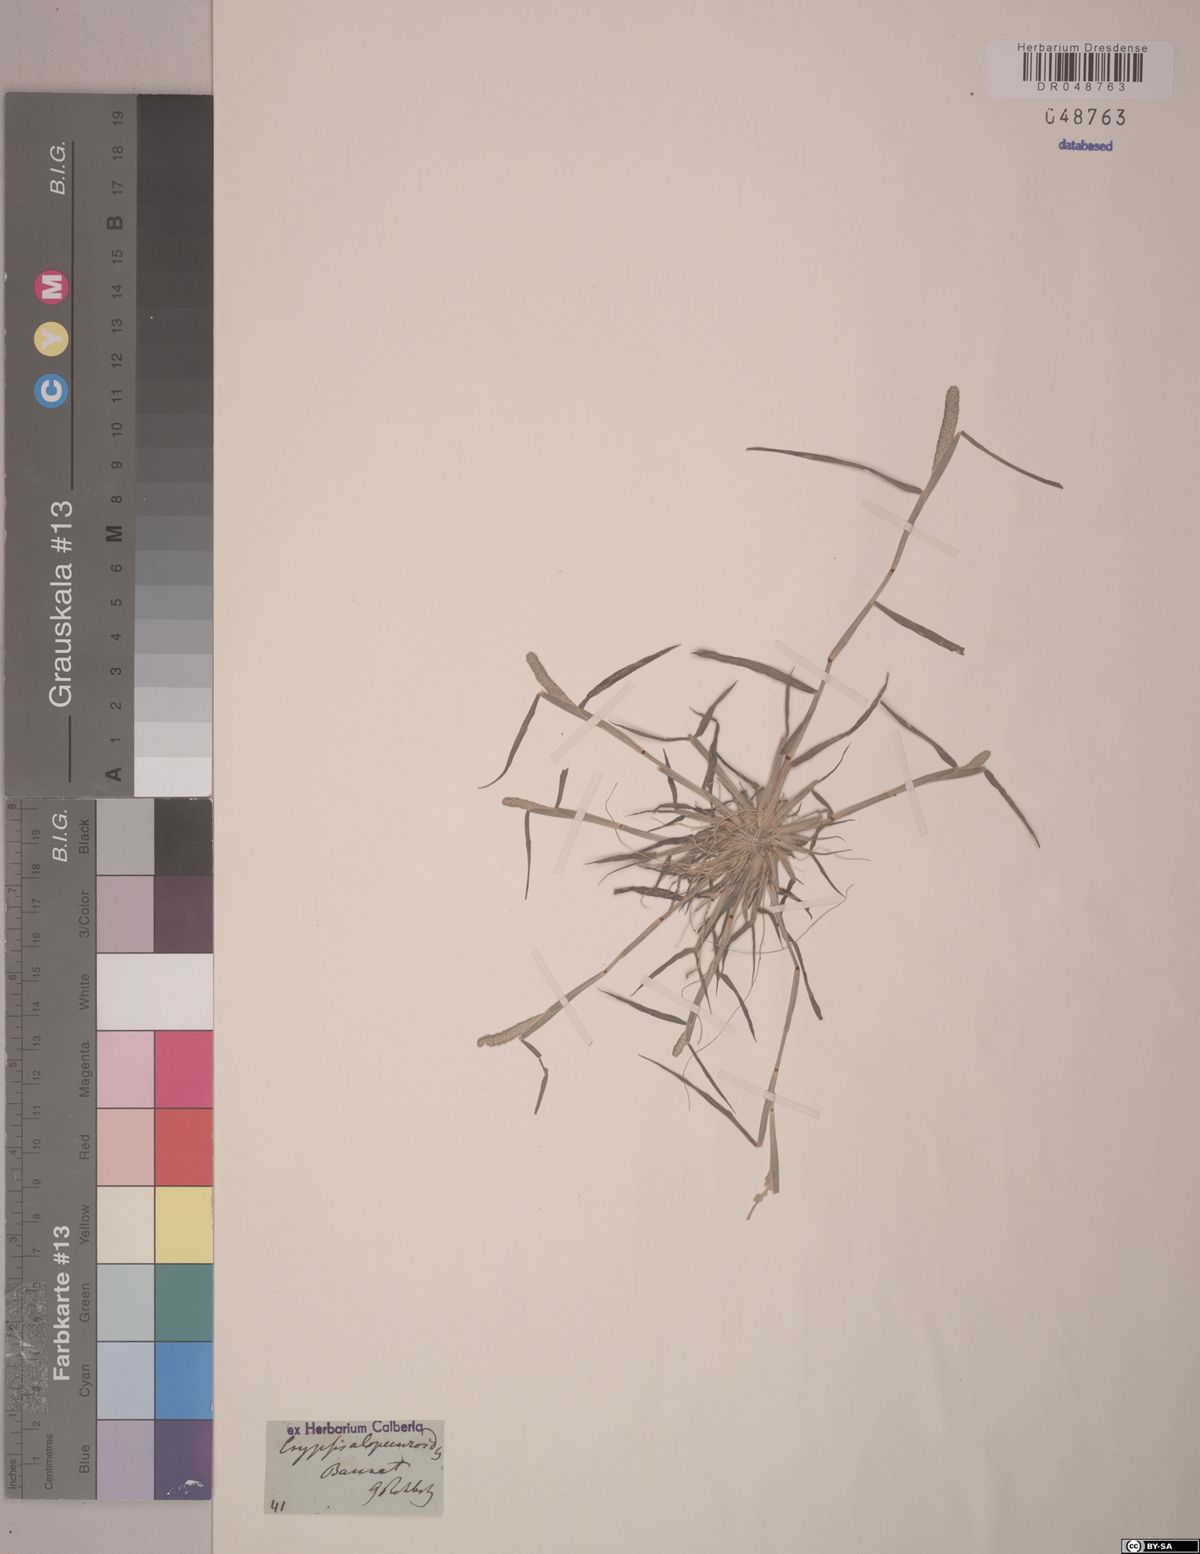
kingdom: Plantae
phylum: Tracheophyta
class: Liliopsida
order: Poales
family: Poaceae
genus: Sporobolus
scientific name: Sporobolus alopecuroides
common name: Foxtail pricklegrass
